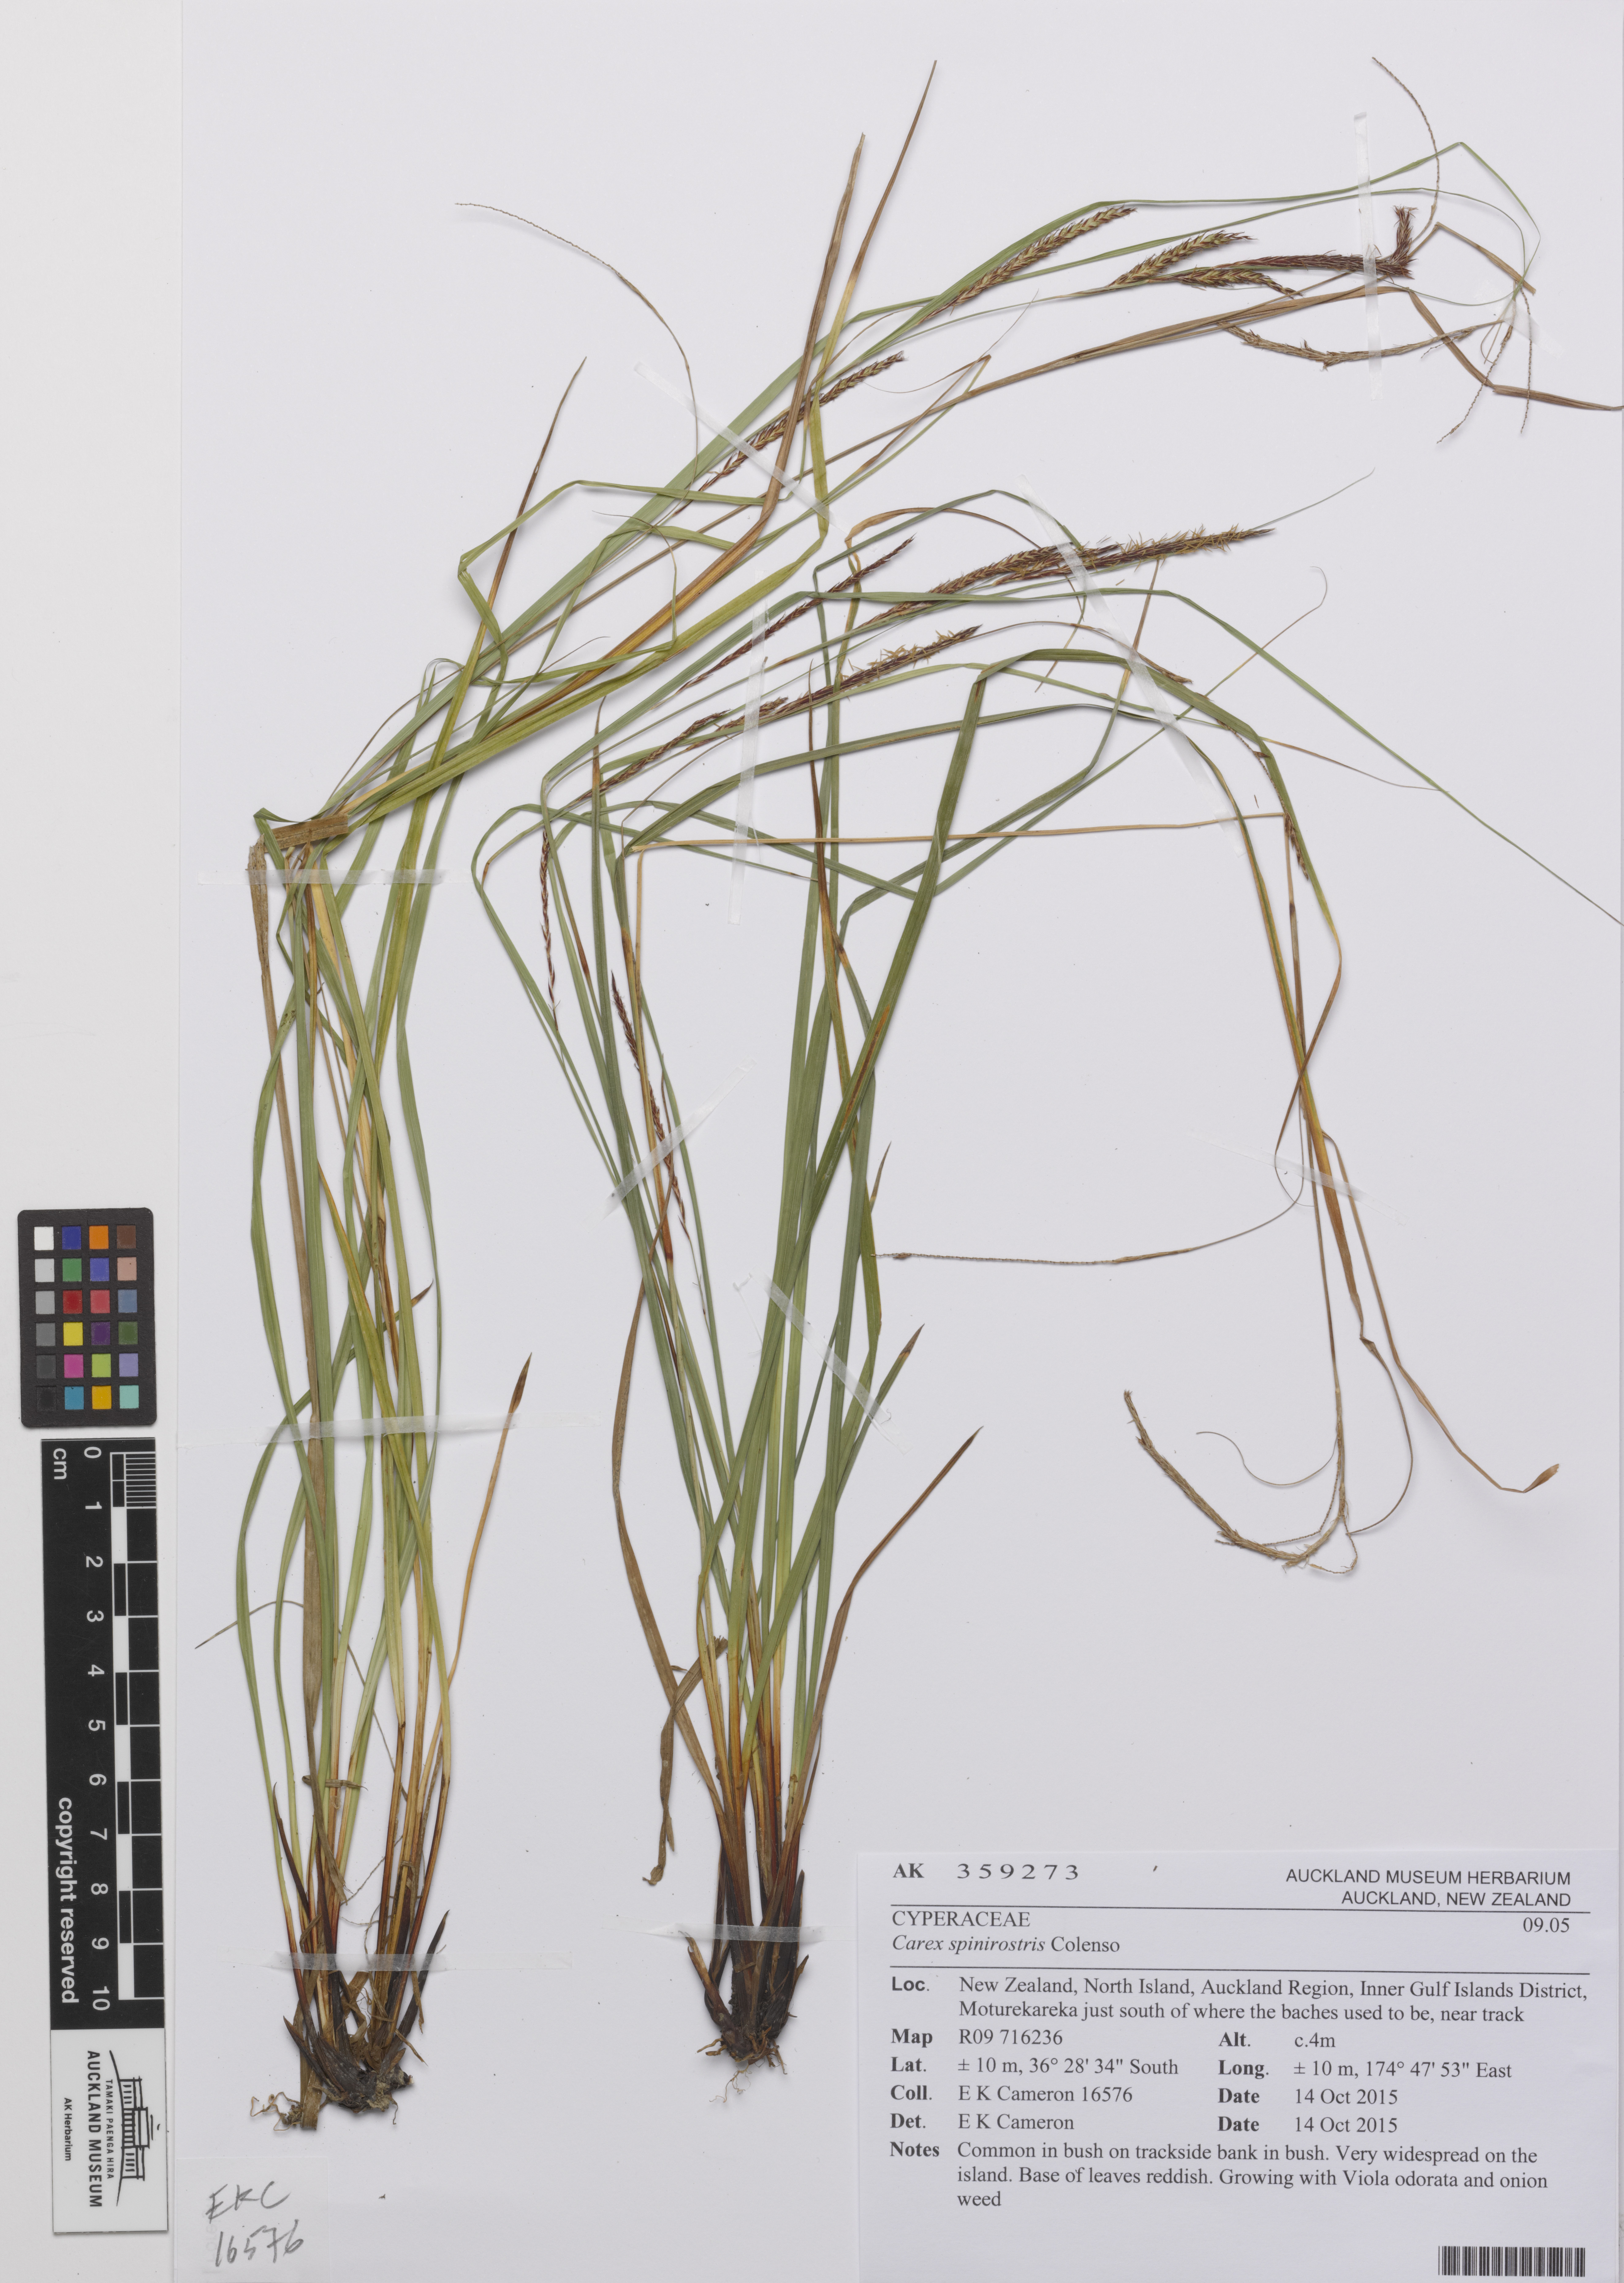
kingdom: Plantae
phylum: Tracheophyta
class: Liliopsida
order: Poales
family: Cyperaceae
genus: Carex
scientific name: Carex spinirostris
